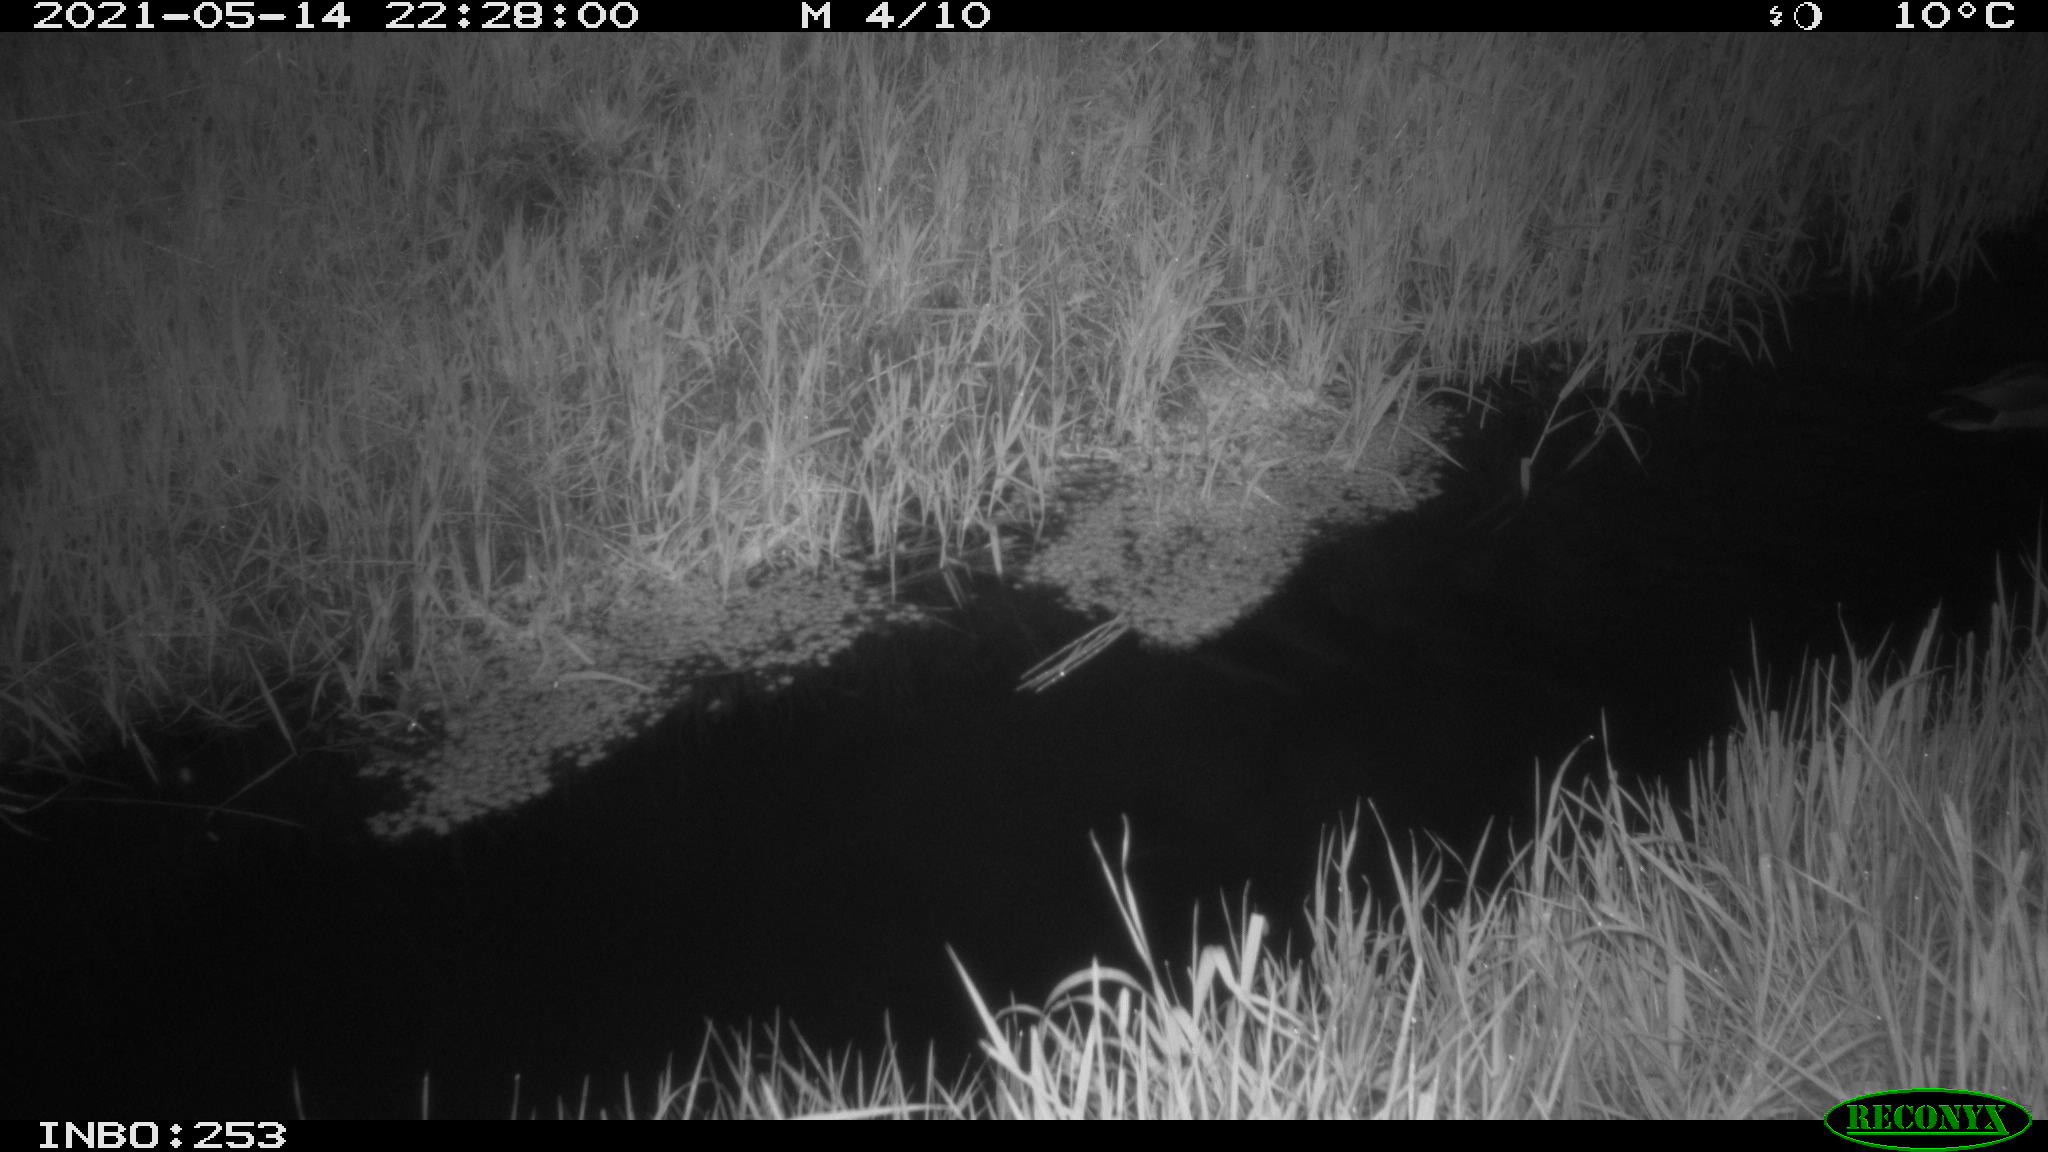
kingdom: Animalia
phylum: Chordata
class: Aves
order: Anseriformes
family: Anatidae
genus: Anas
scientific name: Anas platyrhynchos
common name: Mallard
